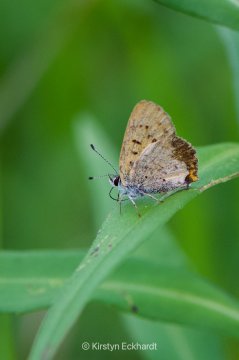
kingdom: Animalia
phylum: Arthropoda
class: Insecta
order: Lepidoptera
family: Sesiidae
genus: Sesia
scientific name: Sesia Lycaena epixanthe
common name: Bog Copper
